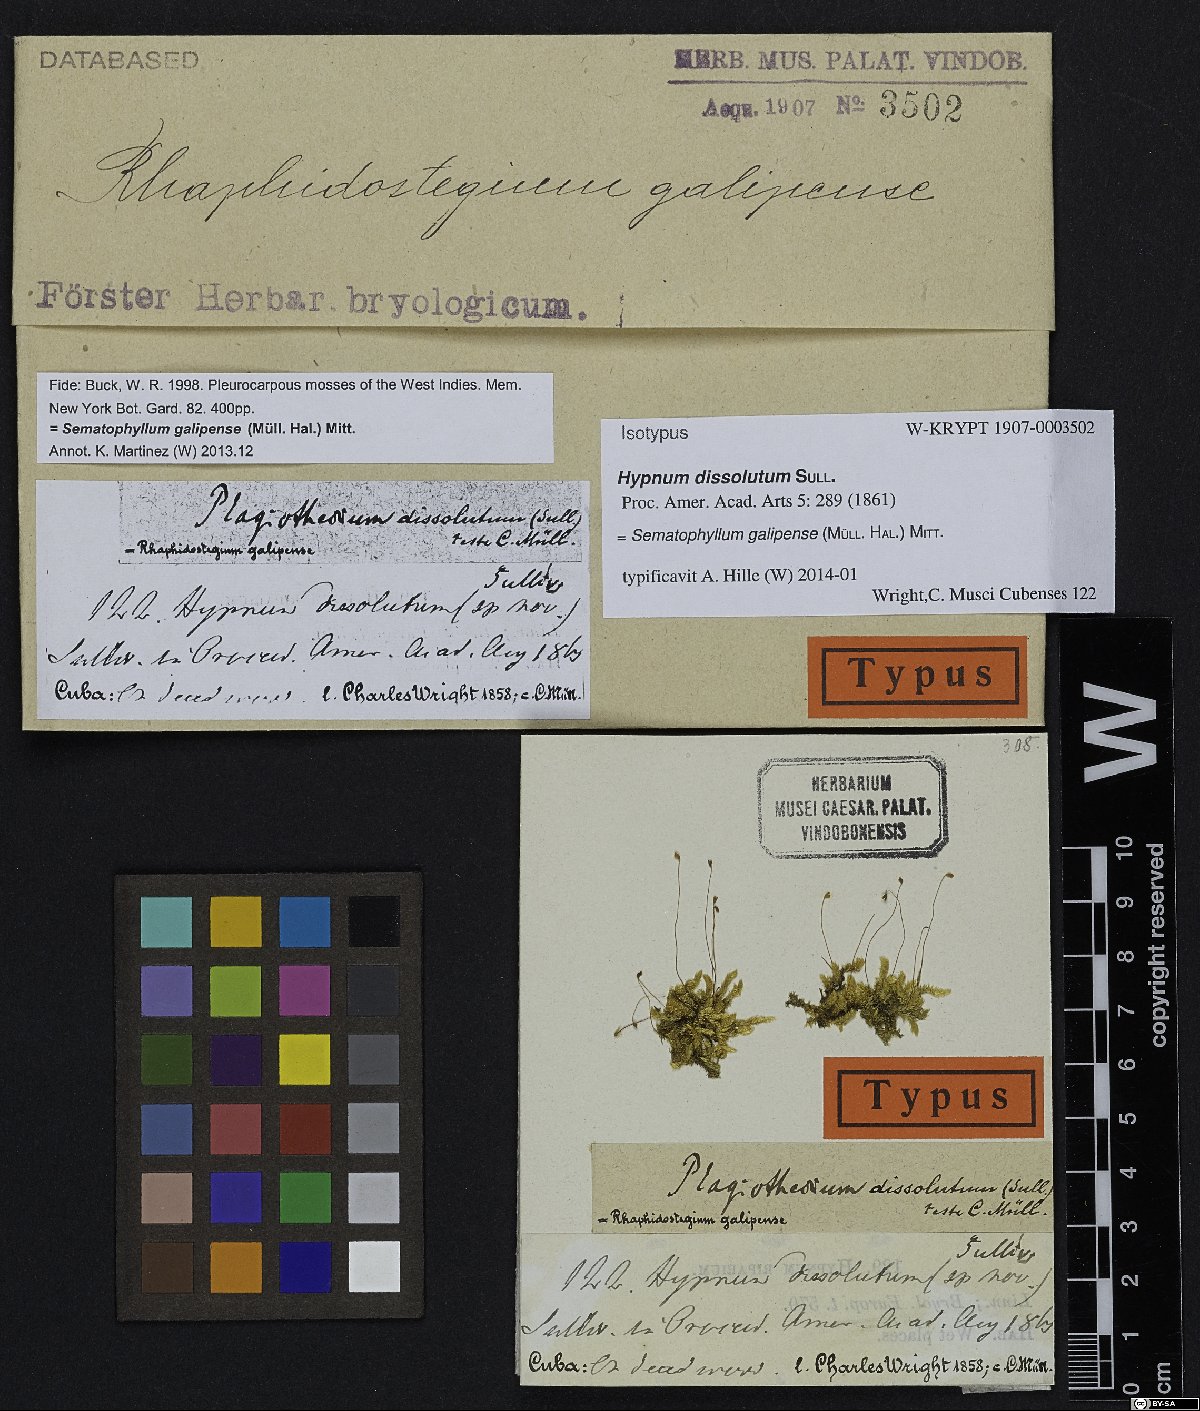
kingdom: Plantae
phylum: Bryophyta
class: Bryopsida
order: Hypnales
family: Sematophyllaceae
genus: Jirivanaea
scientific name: Jirivanaea galipensis
